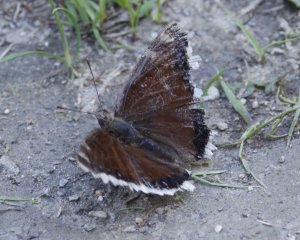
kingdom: Animalia
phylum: Arthropoda
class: Insecta
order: Lepidoptera
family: Nymphalidae
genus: Nymphalis
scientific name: Nymphalis antiopa
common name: Mourning Cloak
